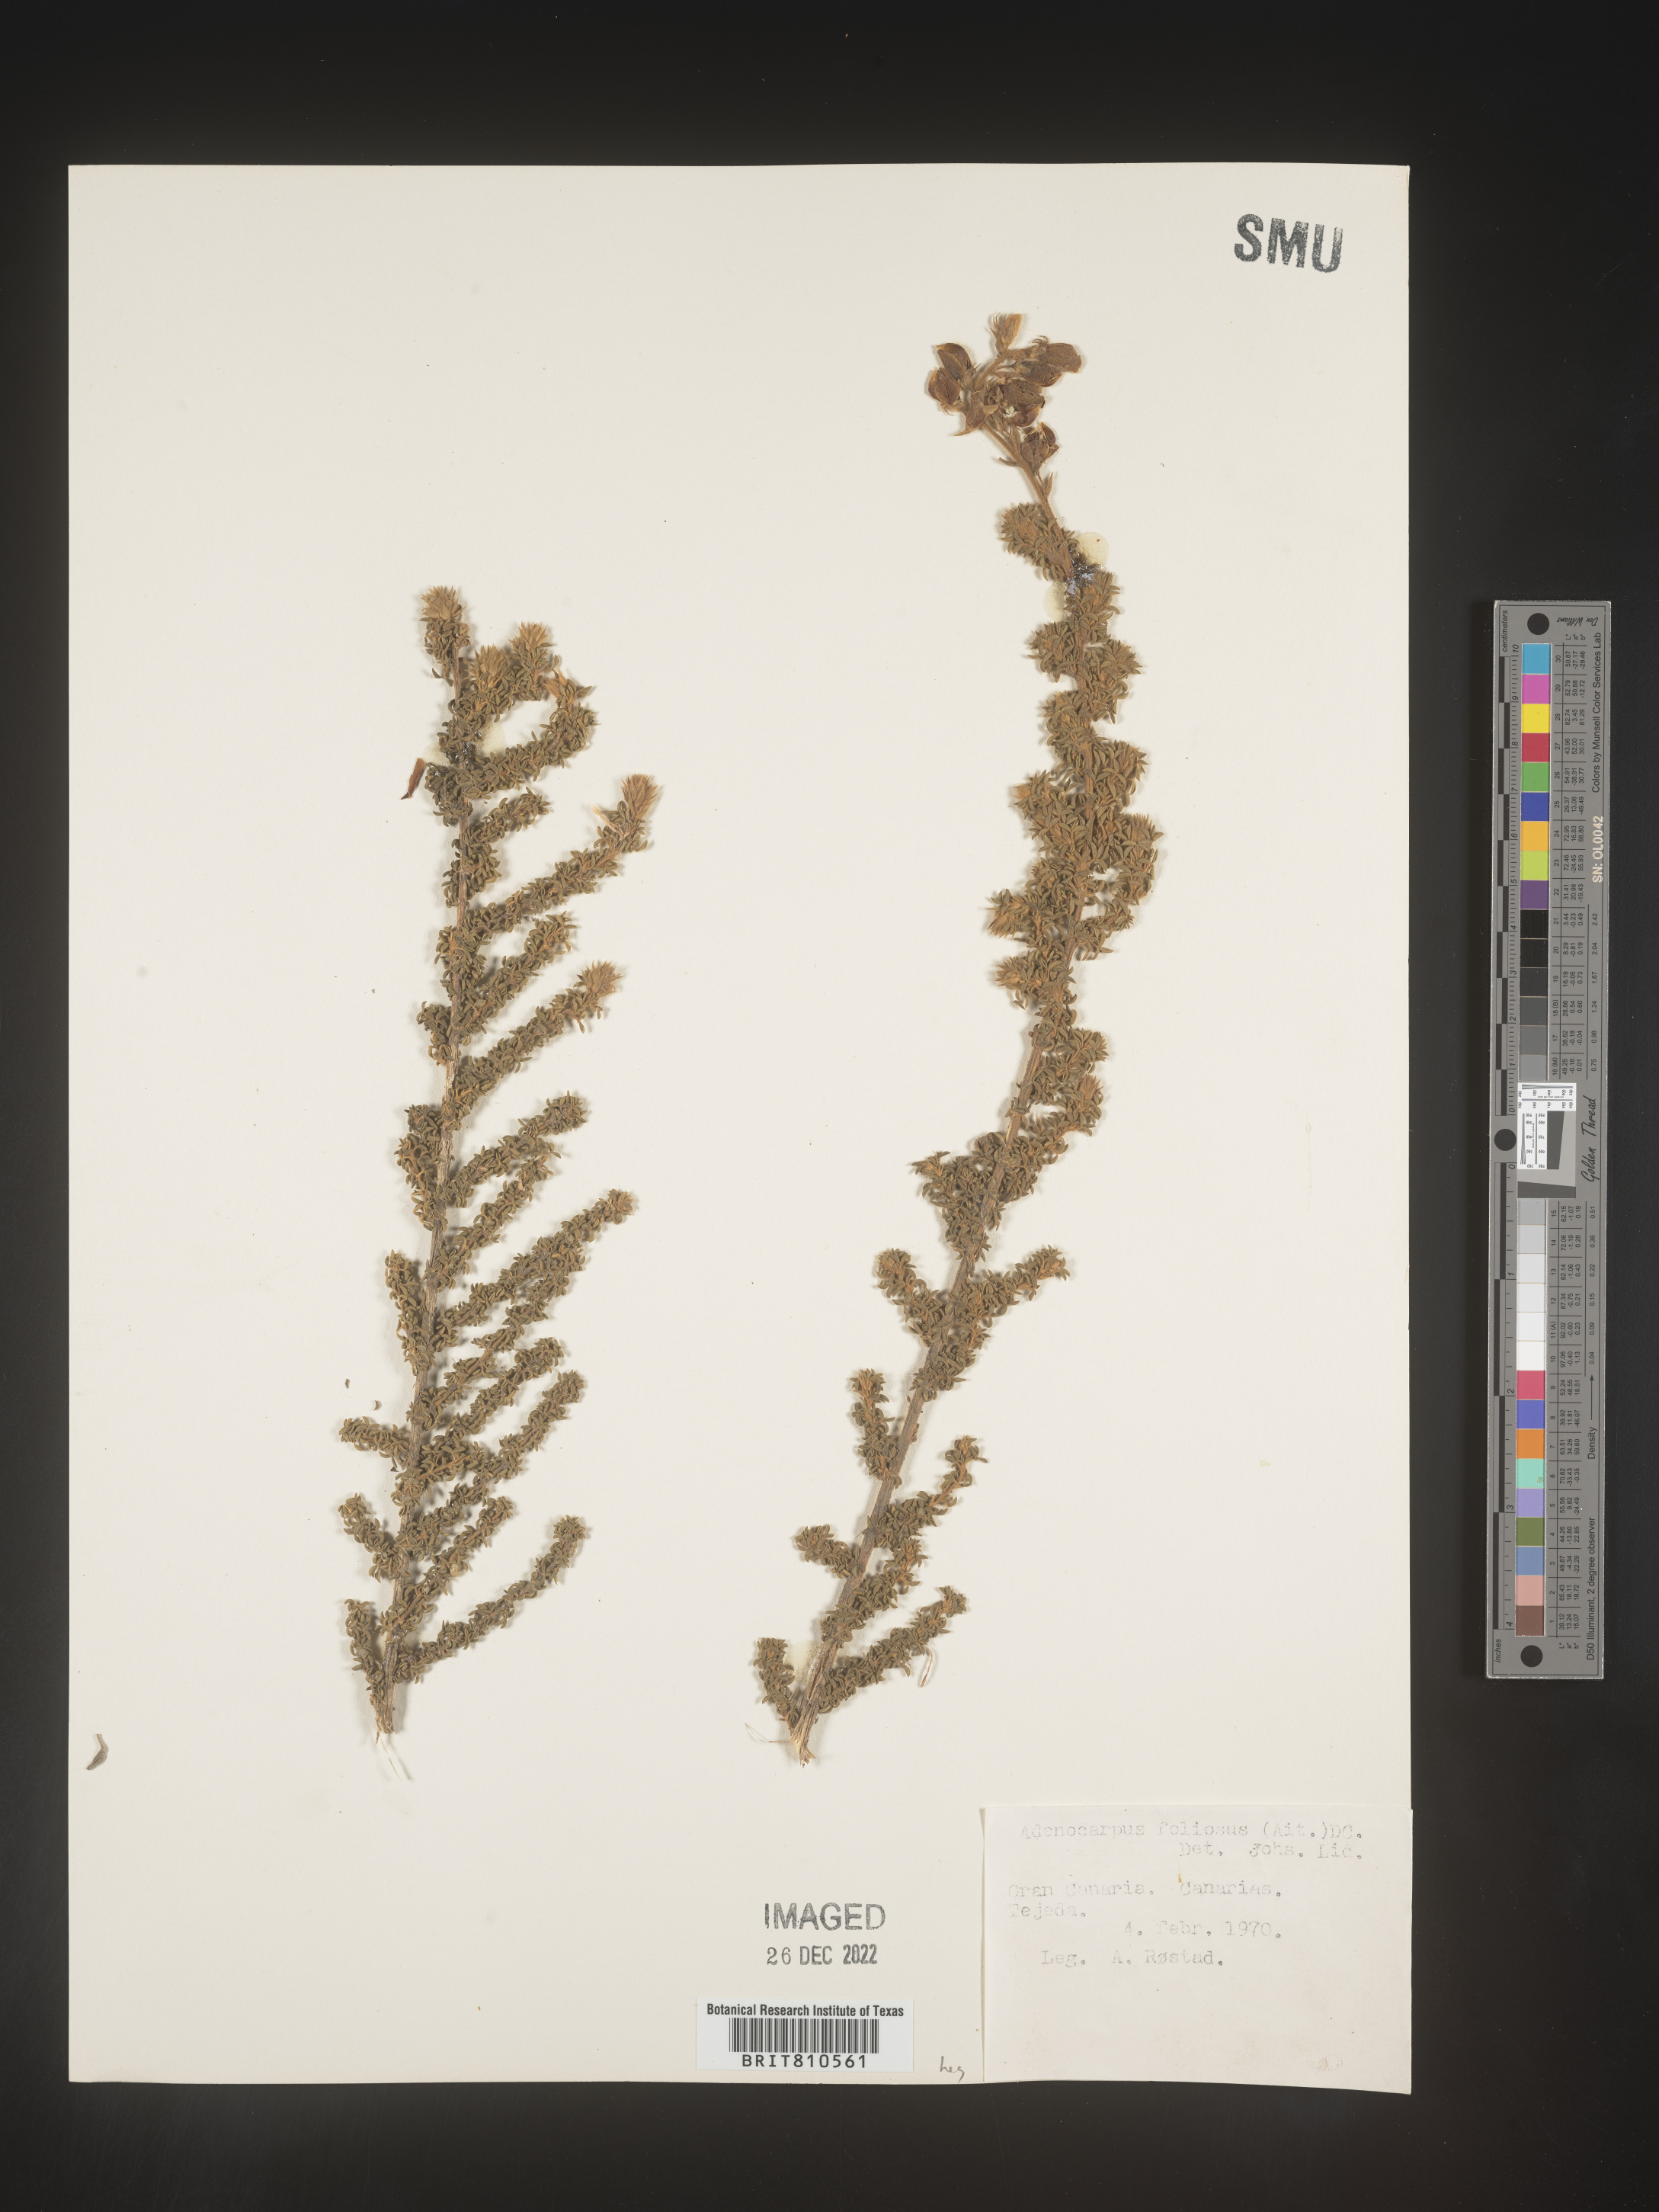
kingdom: Plantae
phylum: Tracheophyta
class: Magnoliopsida
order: Fabales
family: Fabaceae
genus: Adenocarpus
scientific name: Adenocarpus
